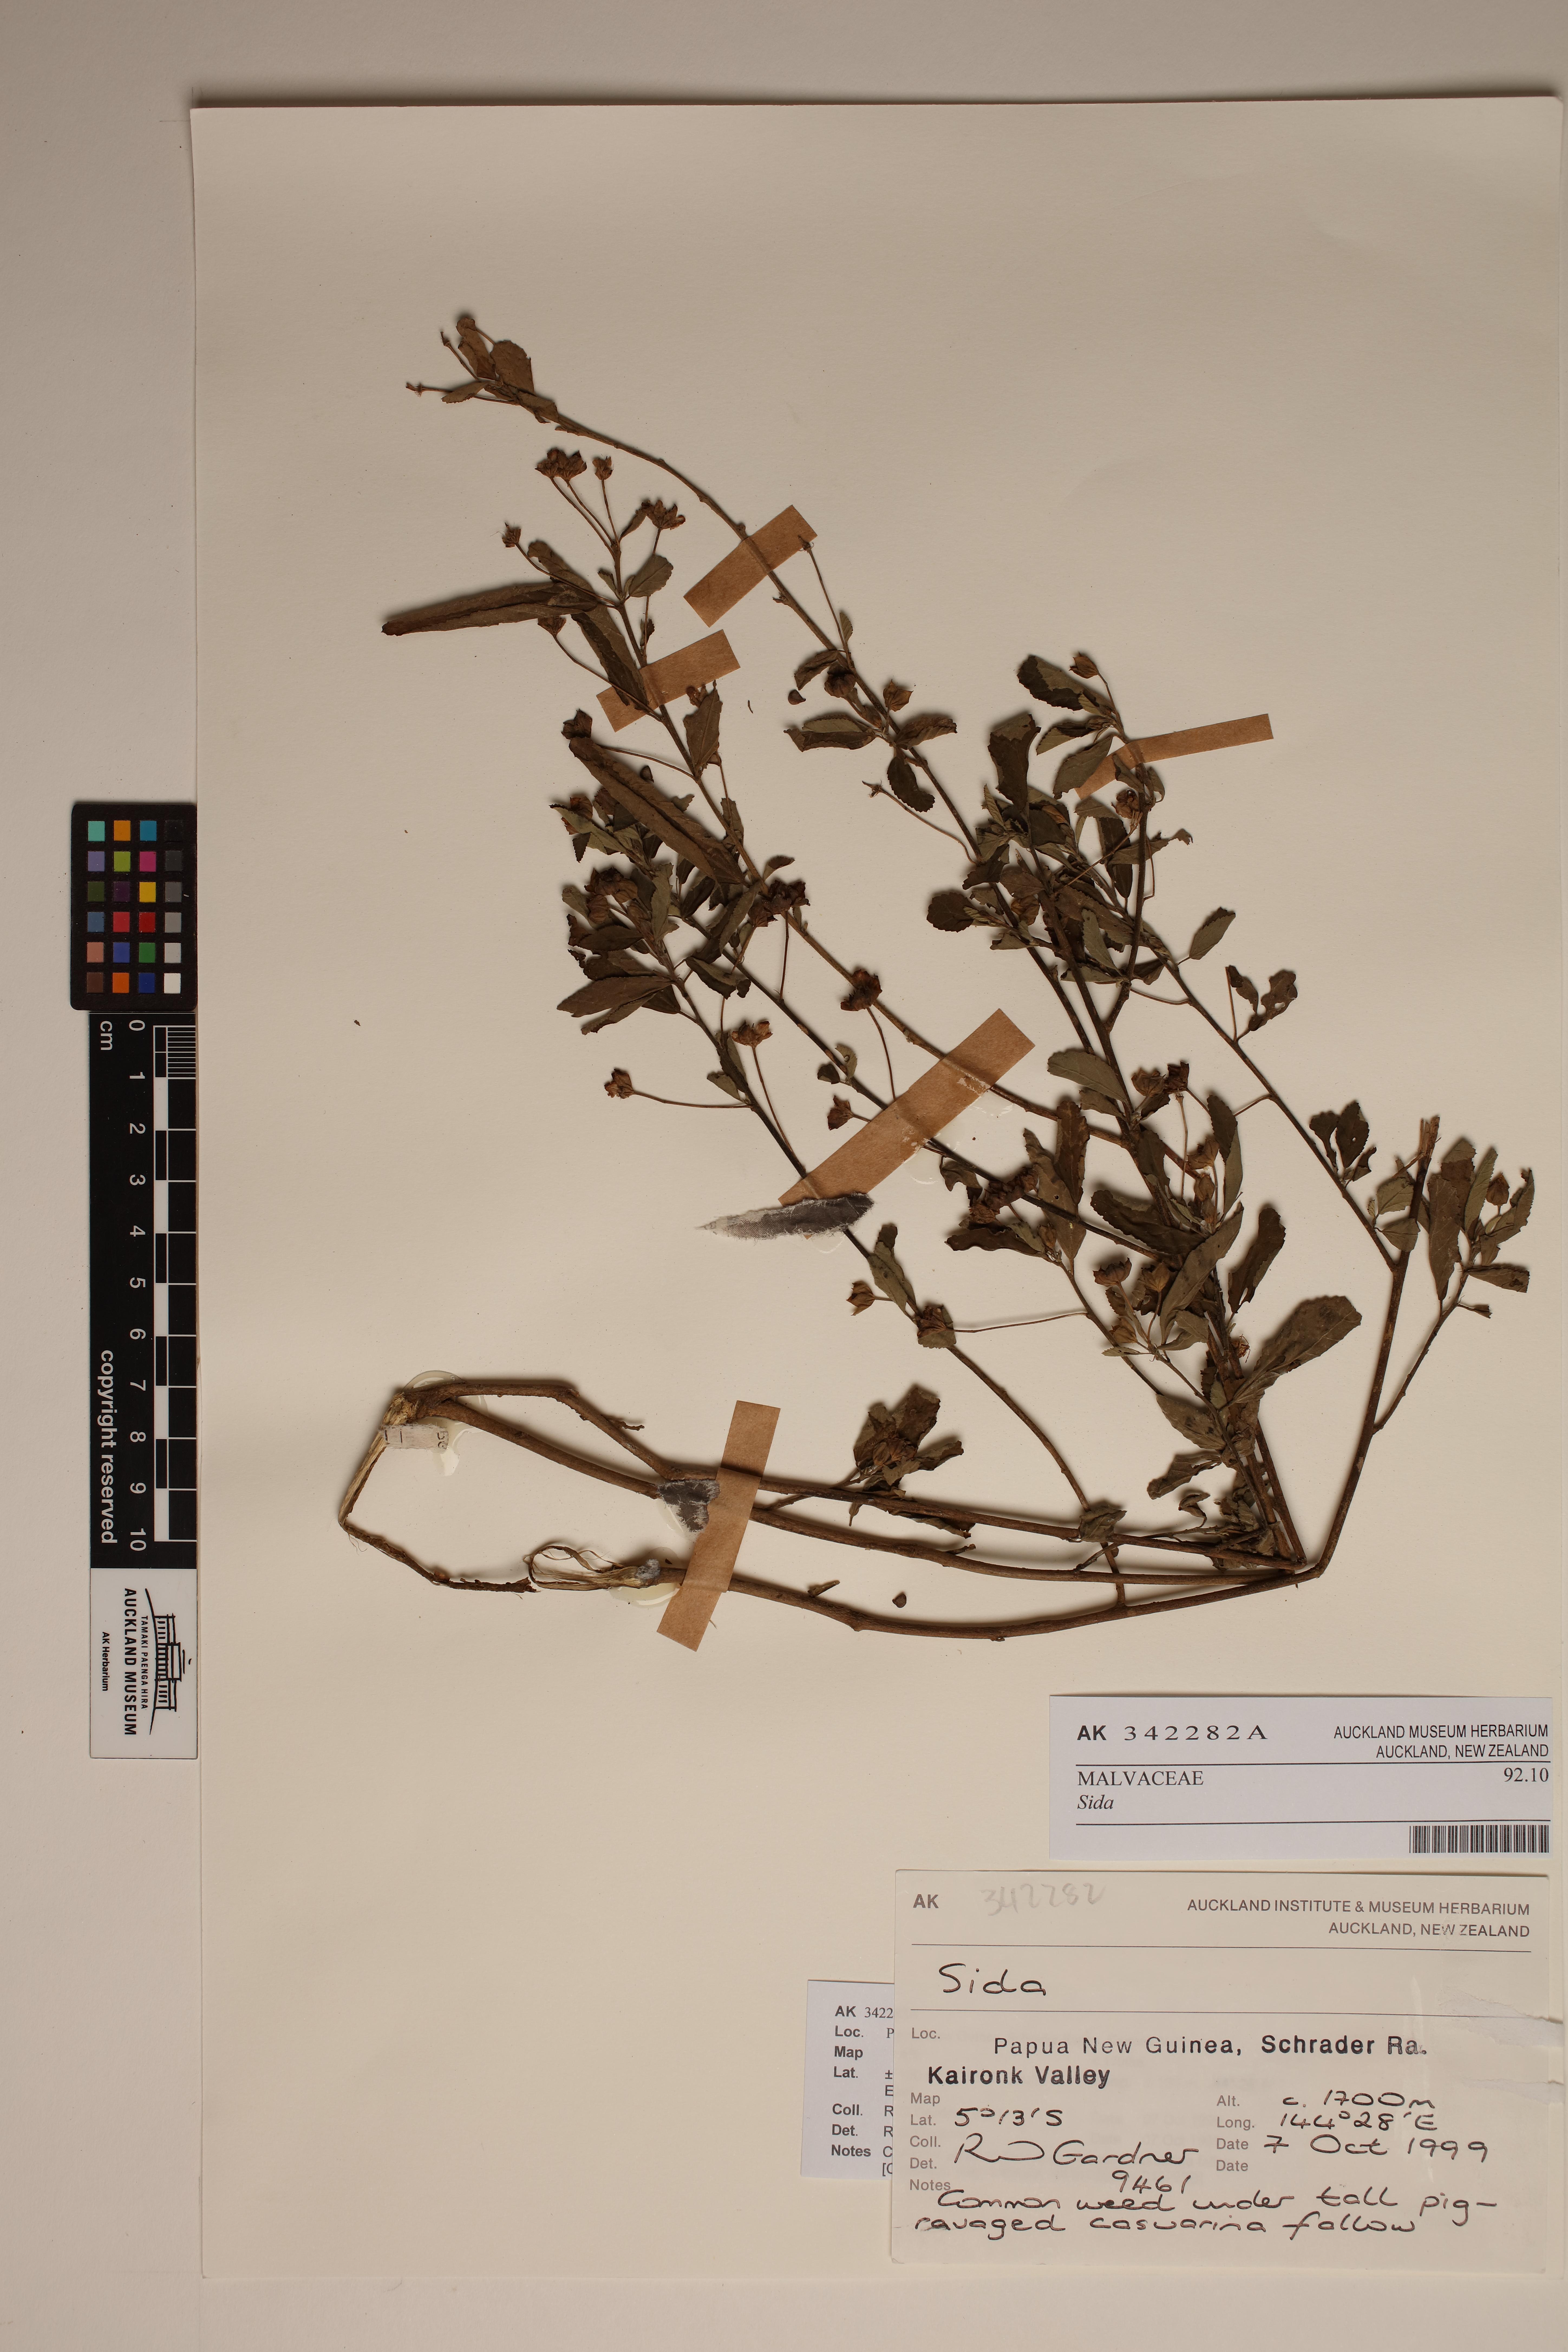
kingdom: Plantae
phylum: Tracheophyta
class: Magnoliopsida
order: Malvales
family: Malvaceae
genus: Sida
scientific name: Sida
